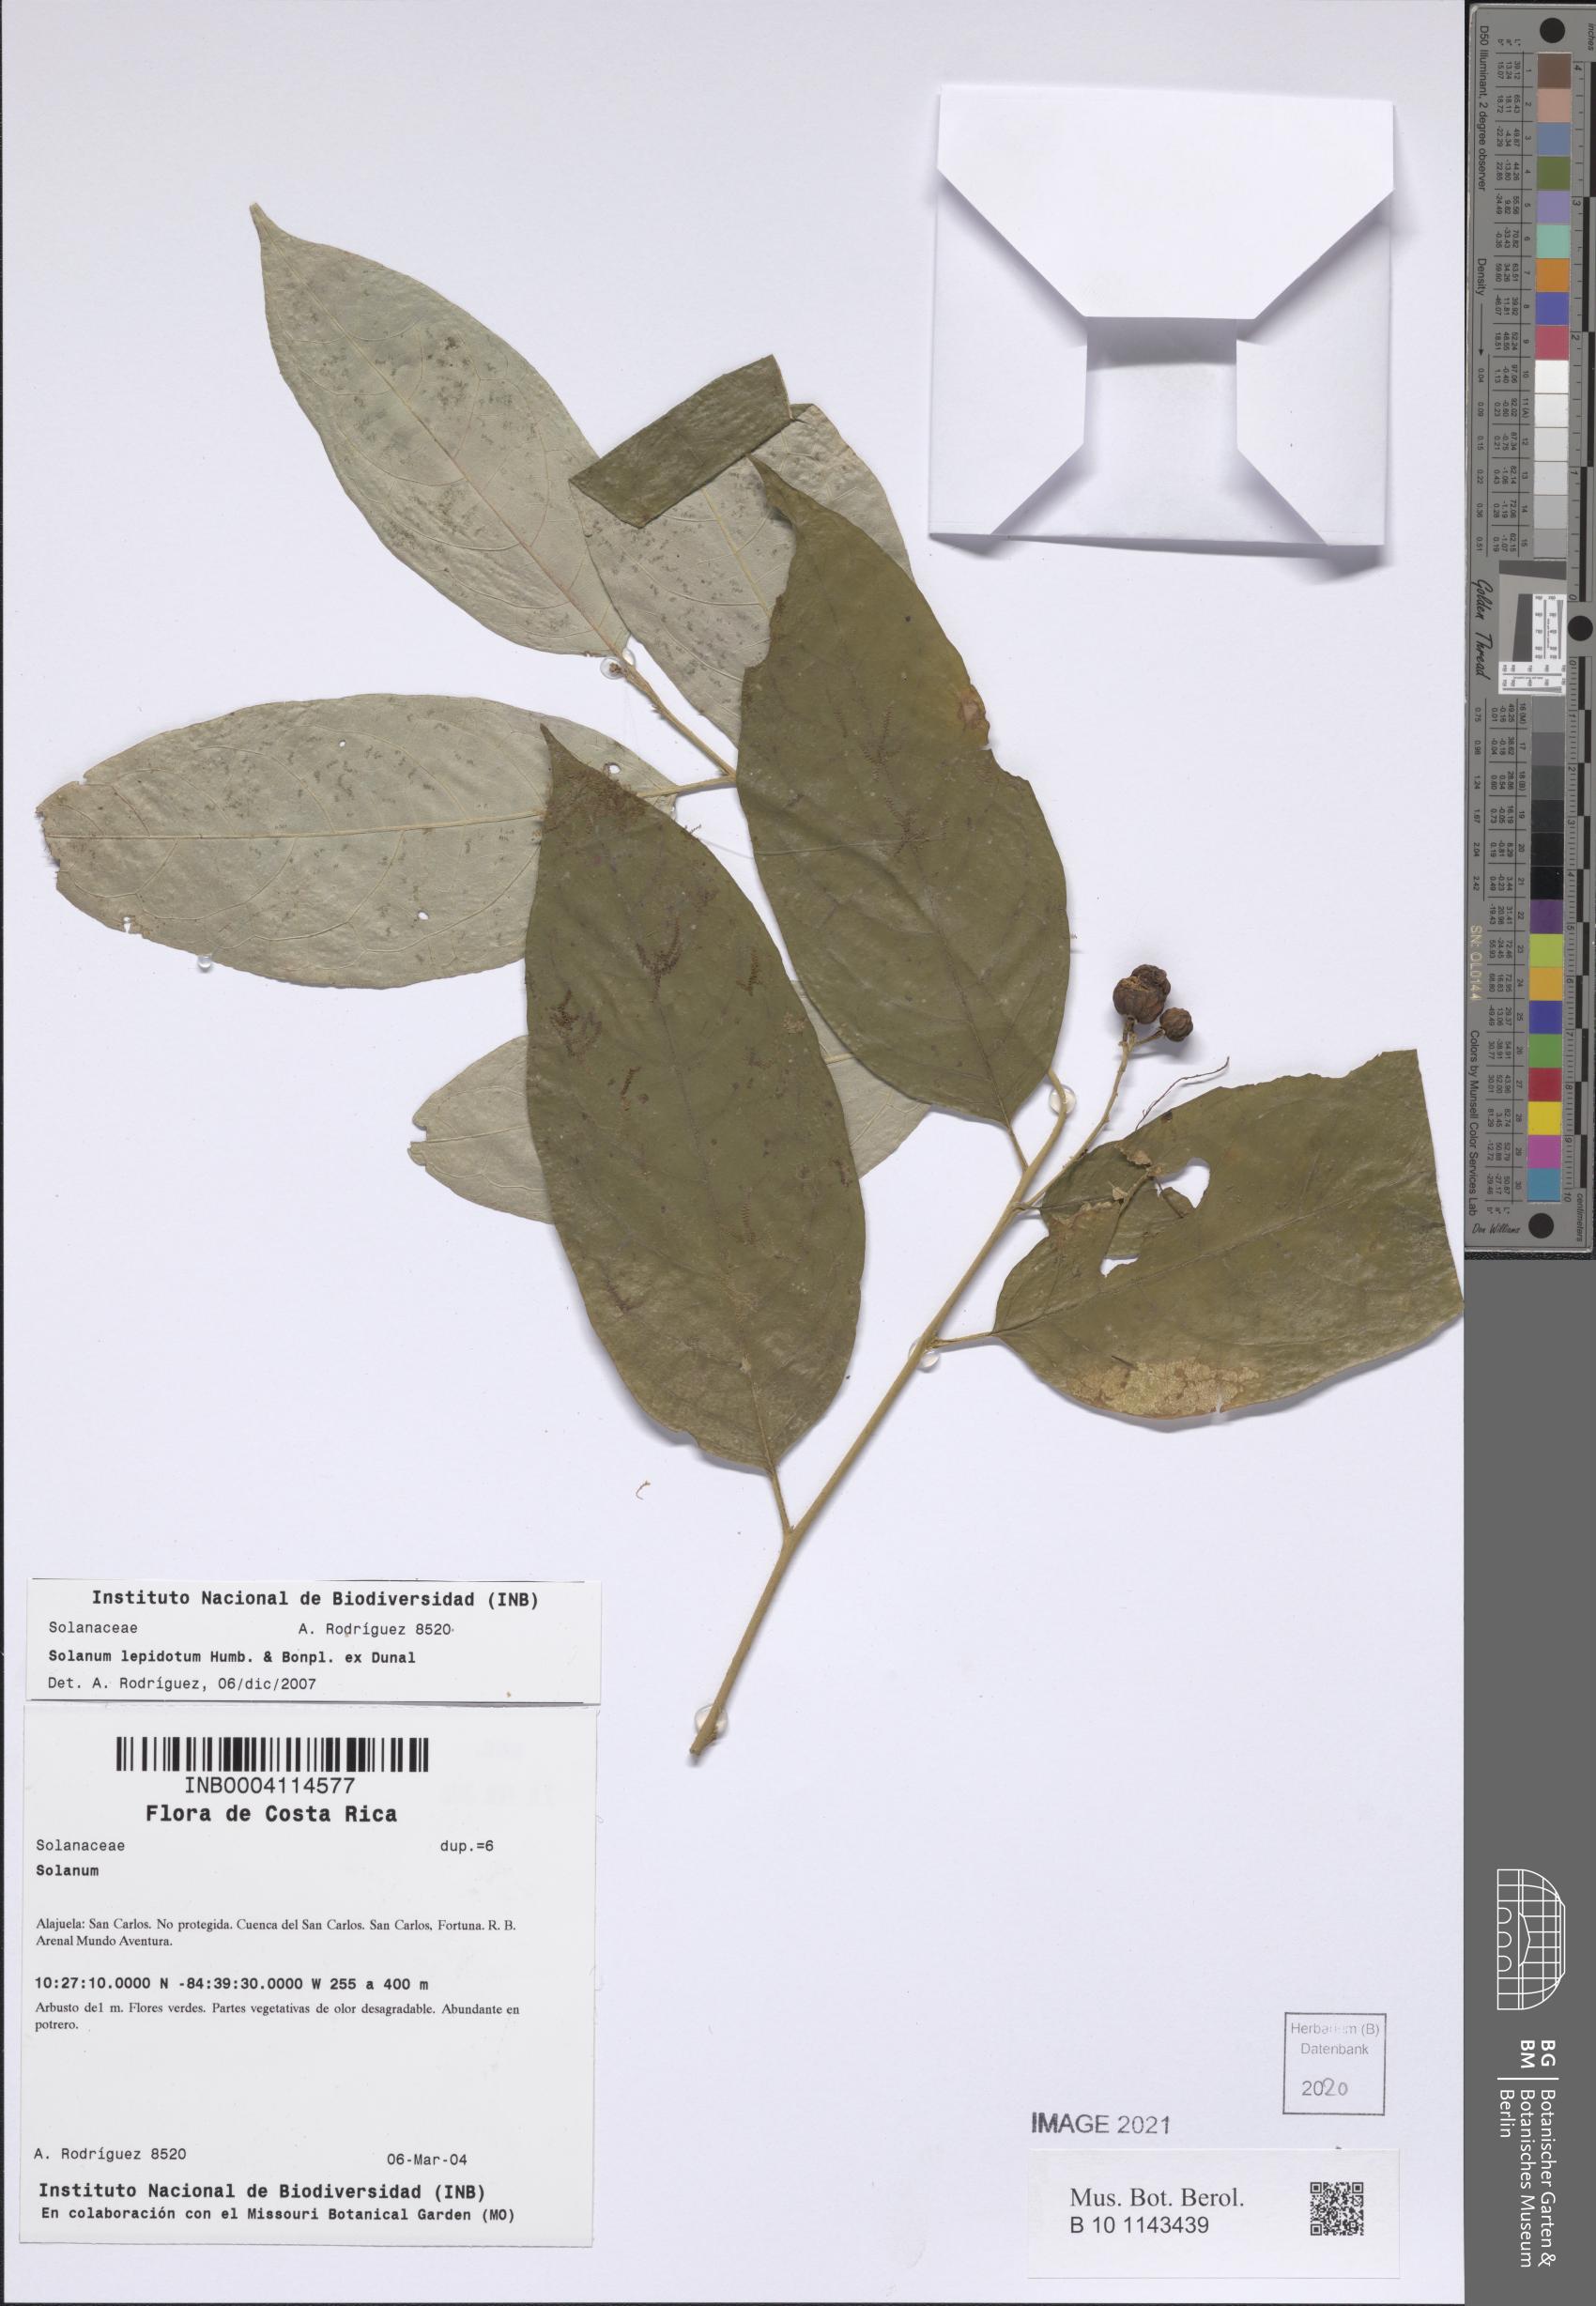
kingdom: Plantae
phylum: Tracheophyta
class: Magnoliopsida
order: Solanales
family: Solanaceae
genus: Solanum
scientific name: Solanum lepidotum
